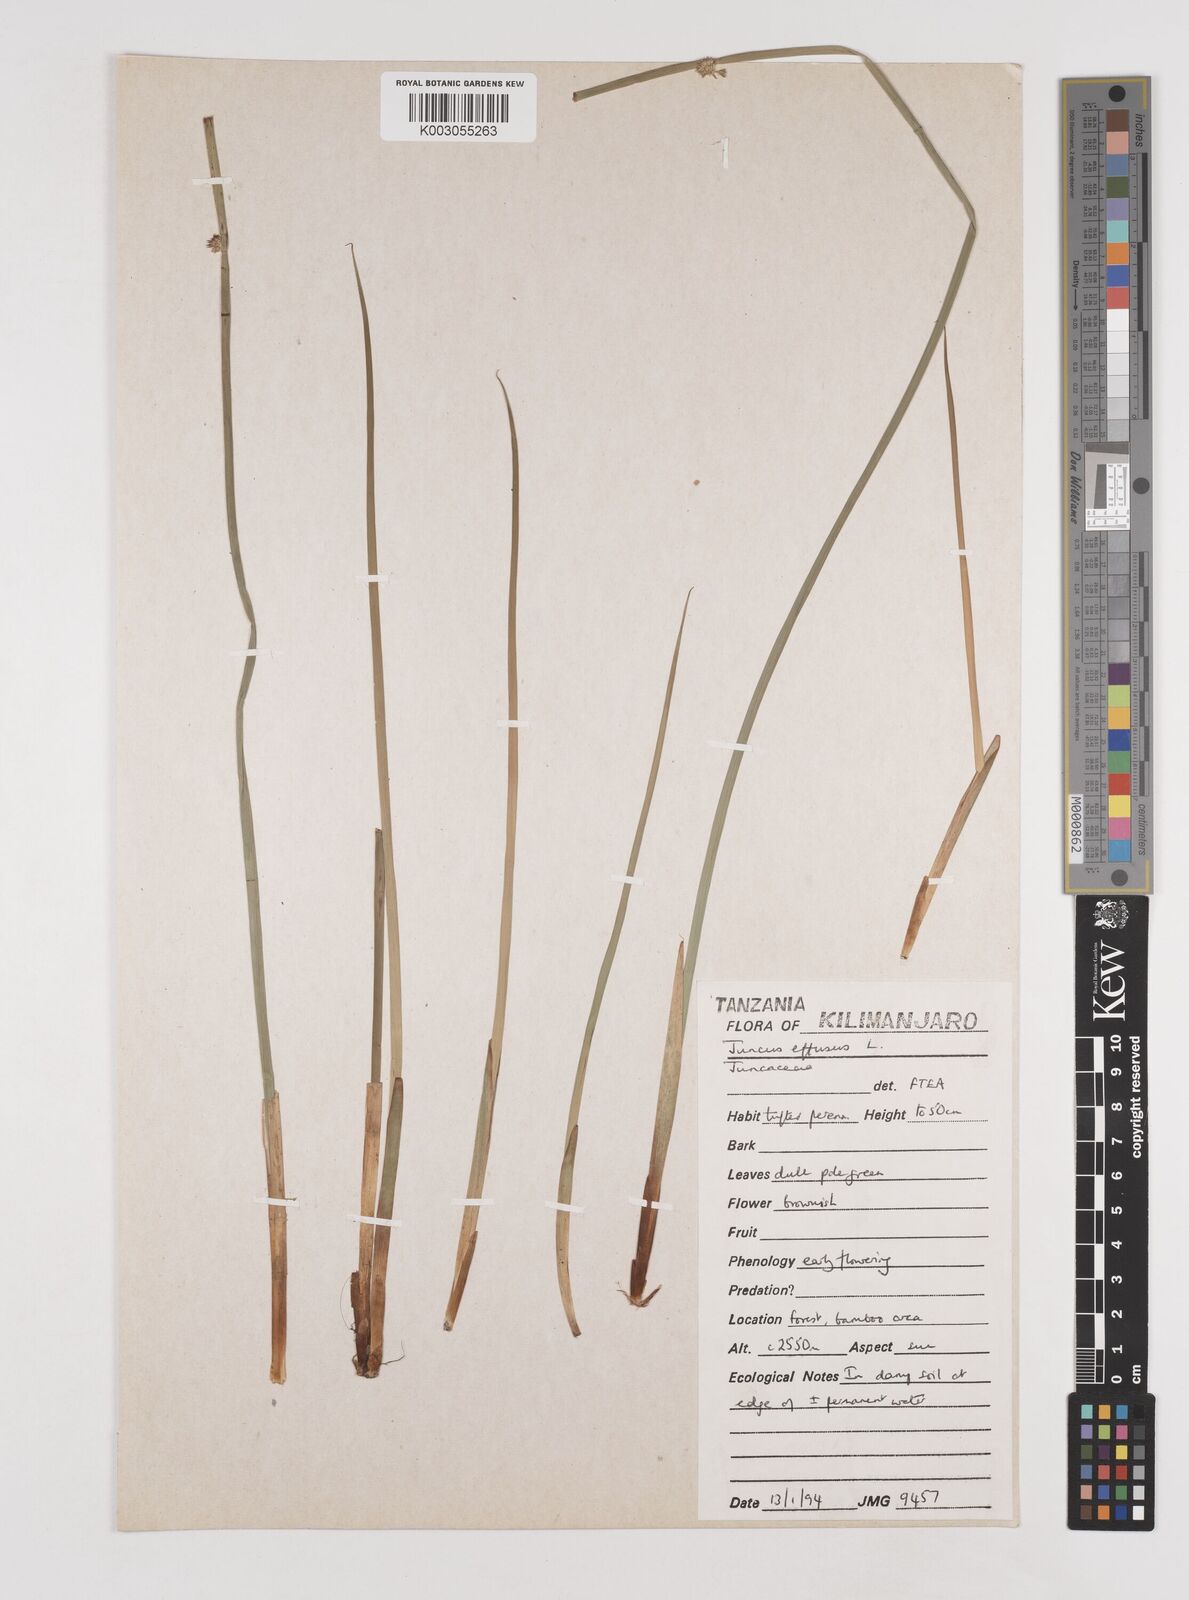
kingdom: Plantae
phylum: Tracheophyta
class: Liliopsida
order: Poales
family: Juncaceae
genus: Juncus
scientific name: Juncus effusus
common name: Soft rush
